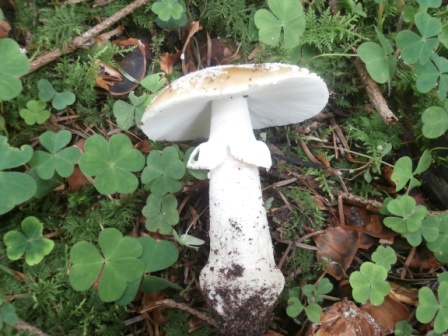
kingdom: Fungi
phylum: Basidiomycota
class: Agaricomycetes
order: Agaricales
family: Amanitaceae
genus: Amanita
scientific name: Amanita rubescens
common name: rødmende fluesvamp
